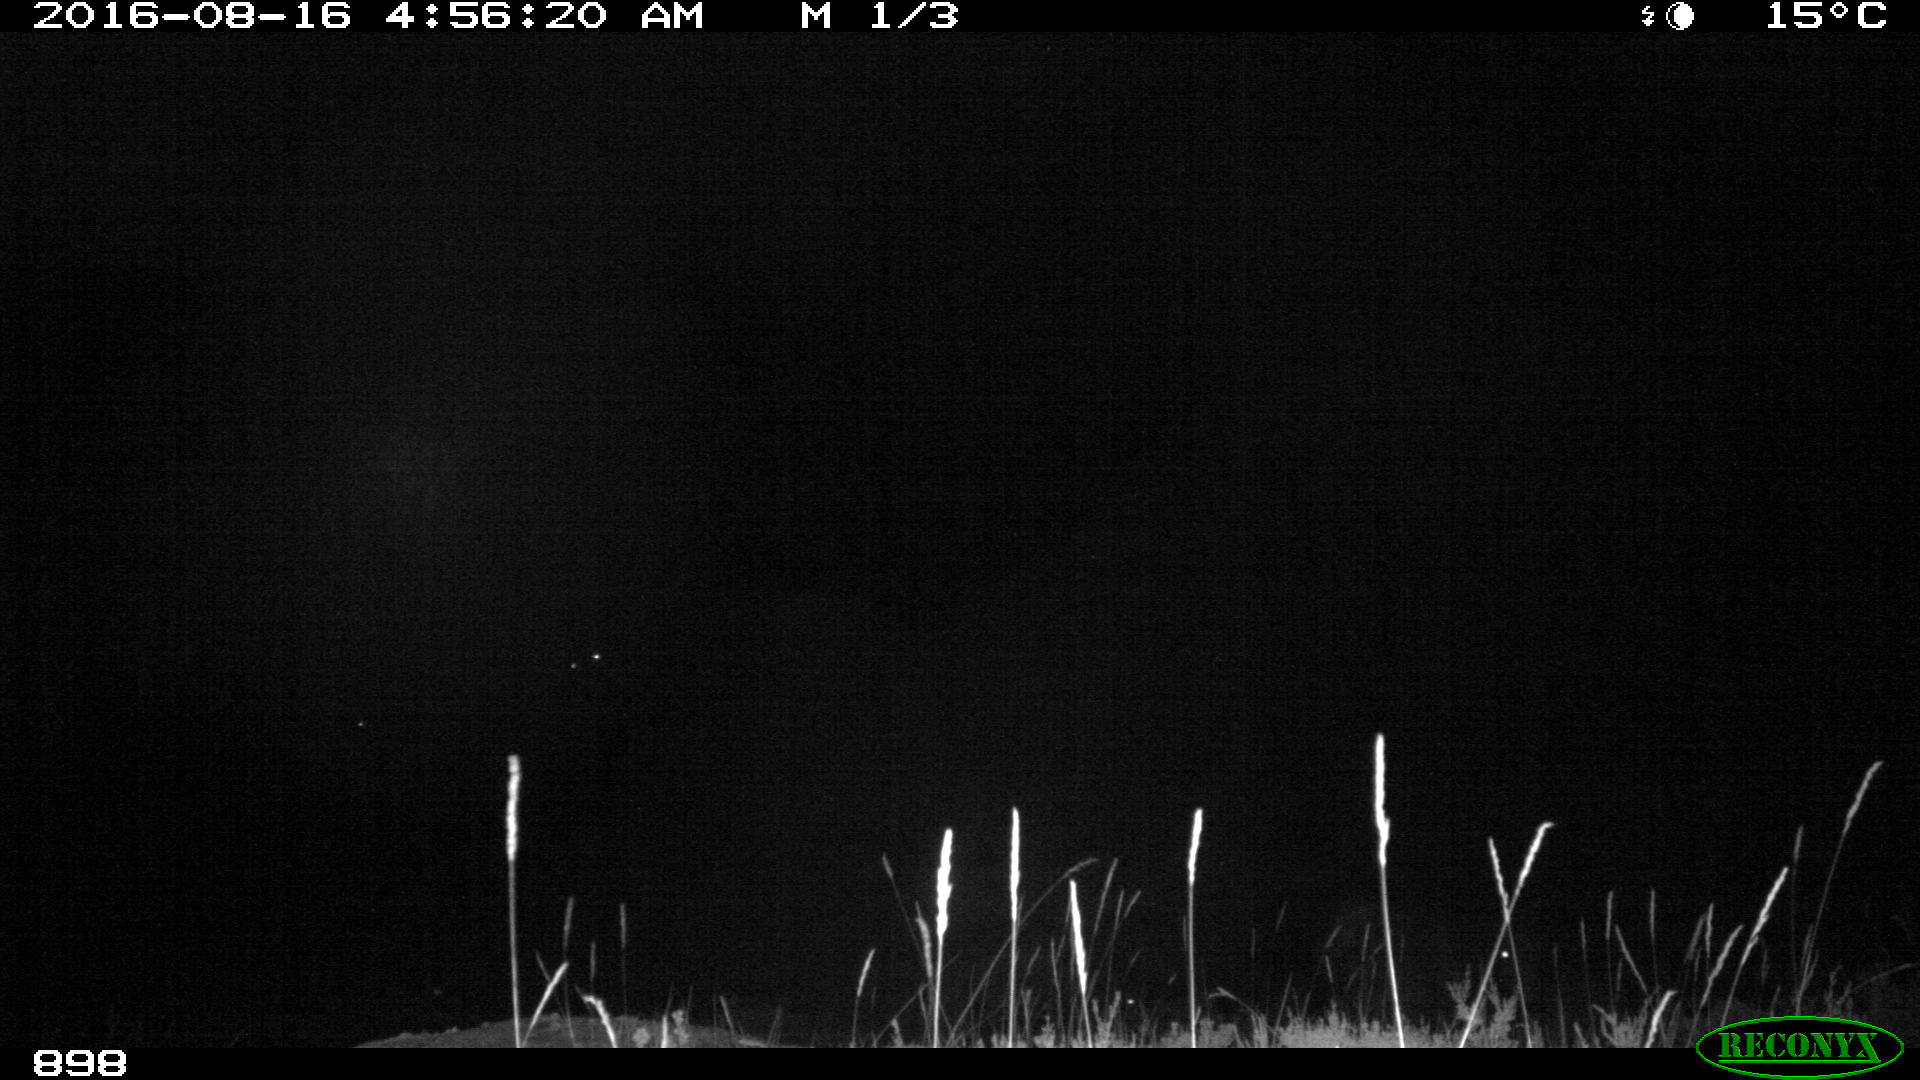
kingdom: Animalia
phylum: Chordata
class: Mammalia
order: Perissodactyla
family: Equidae
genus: Equus
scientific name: Equus caballus
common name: Horse
